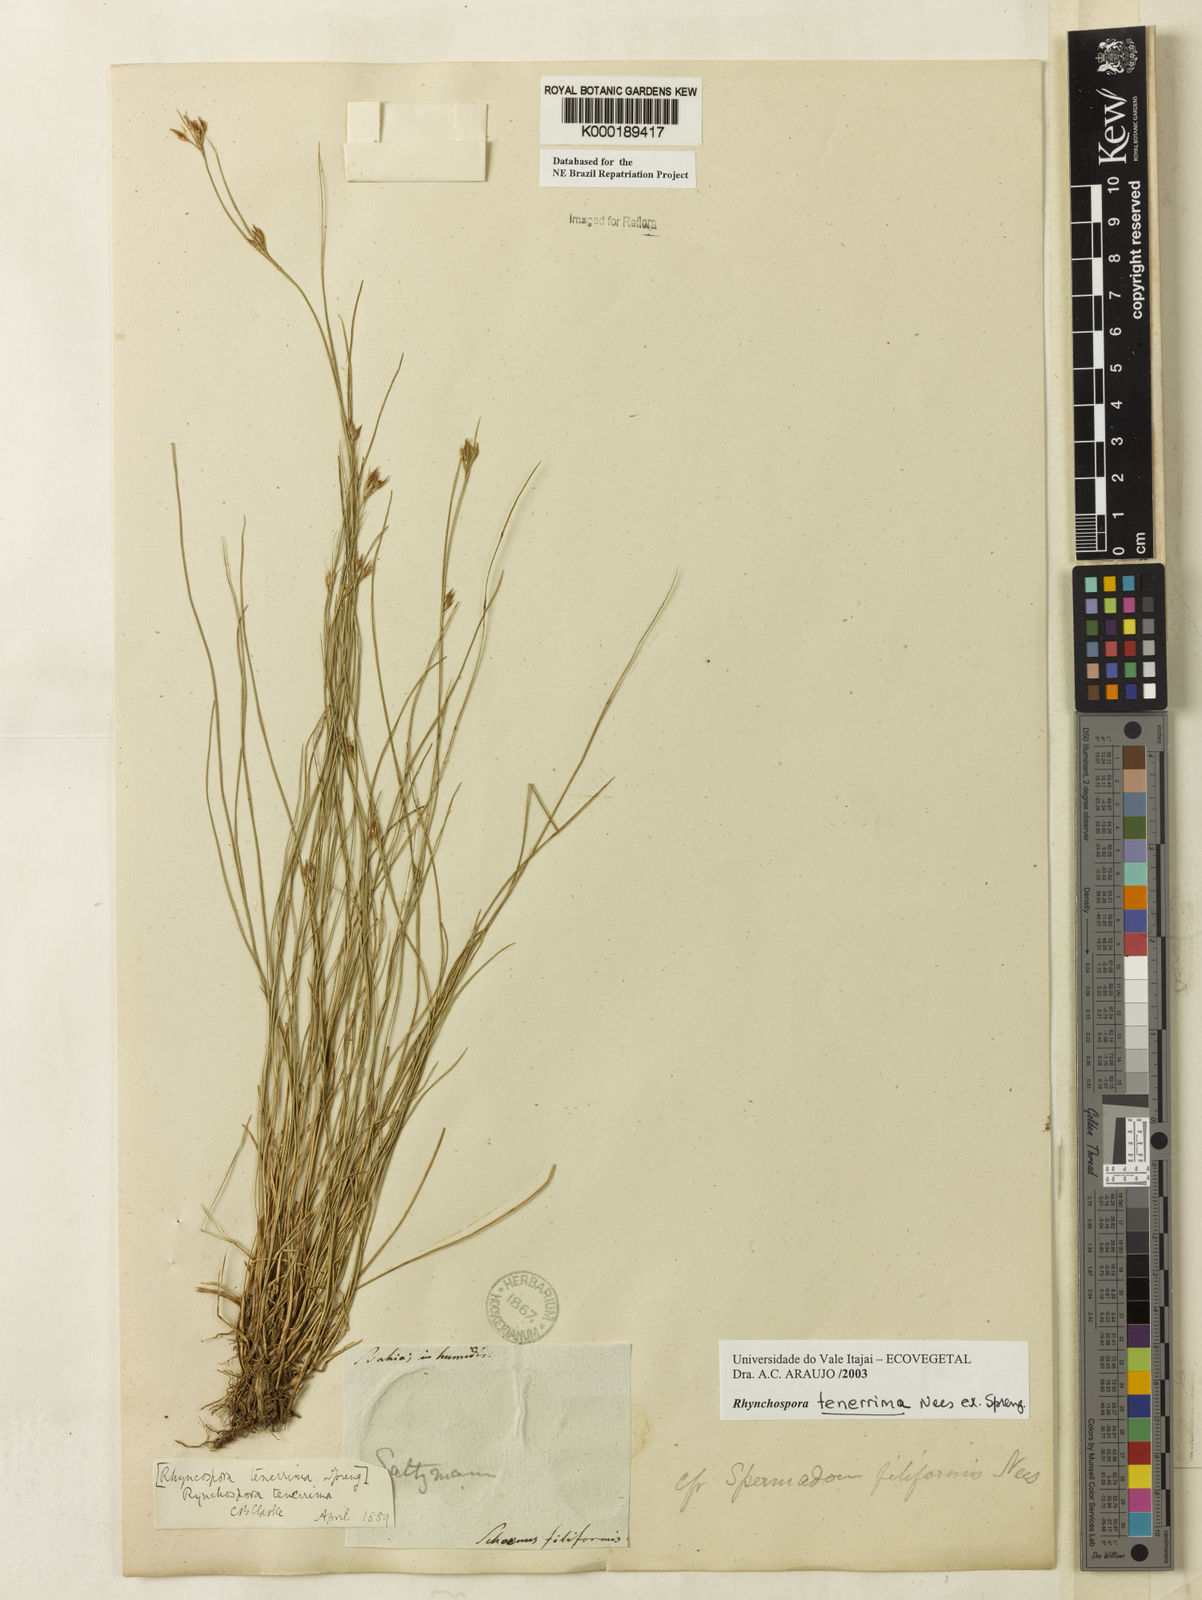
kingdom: Plantae
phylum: Tracheophyta
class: Liliopsida
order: Poales
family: Cyperaceae
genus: Rhynchospora
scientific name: Rhynchospora tenerrima
